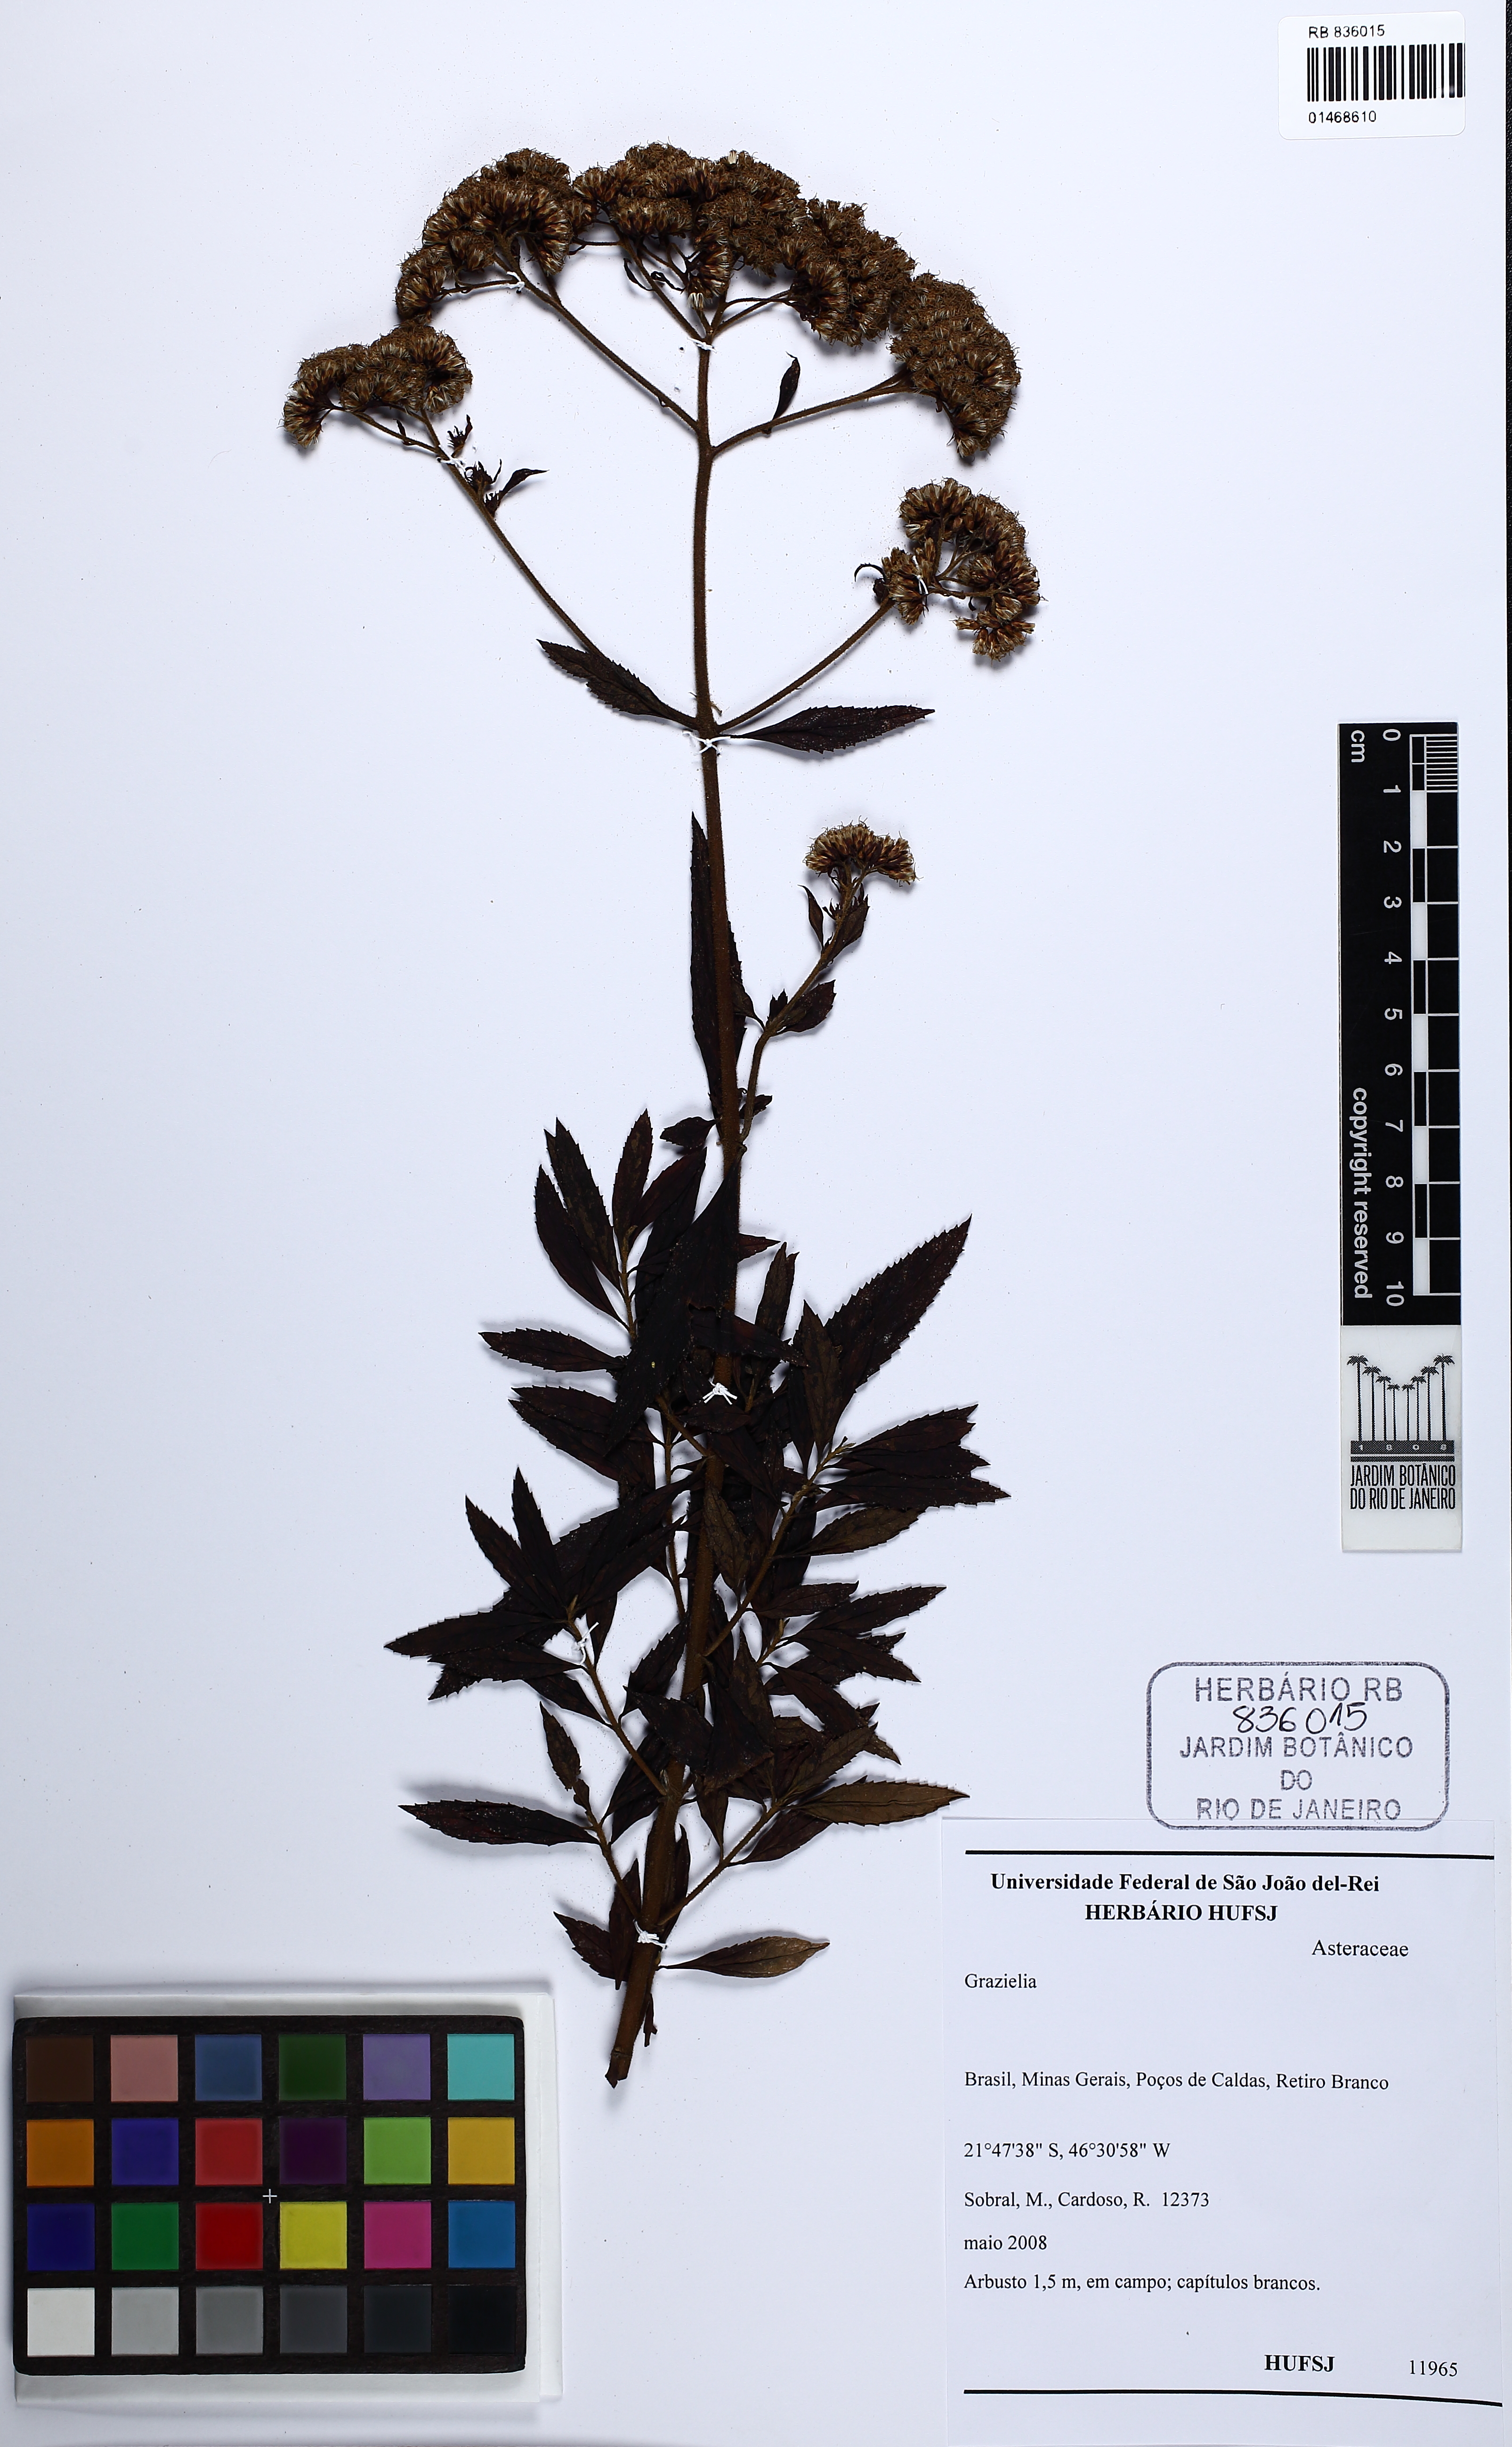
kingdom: Plantae
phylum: Tracheophyta
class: Magnoliopsida
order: Asterales
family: Asteraceae
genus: Grazielia
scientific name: Grazielia
